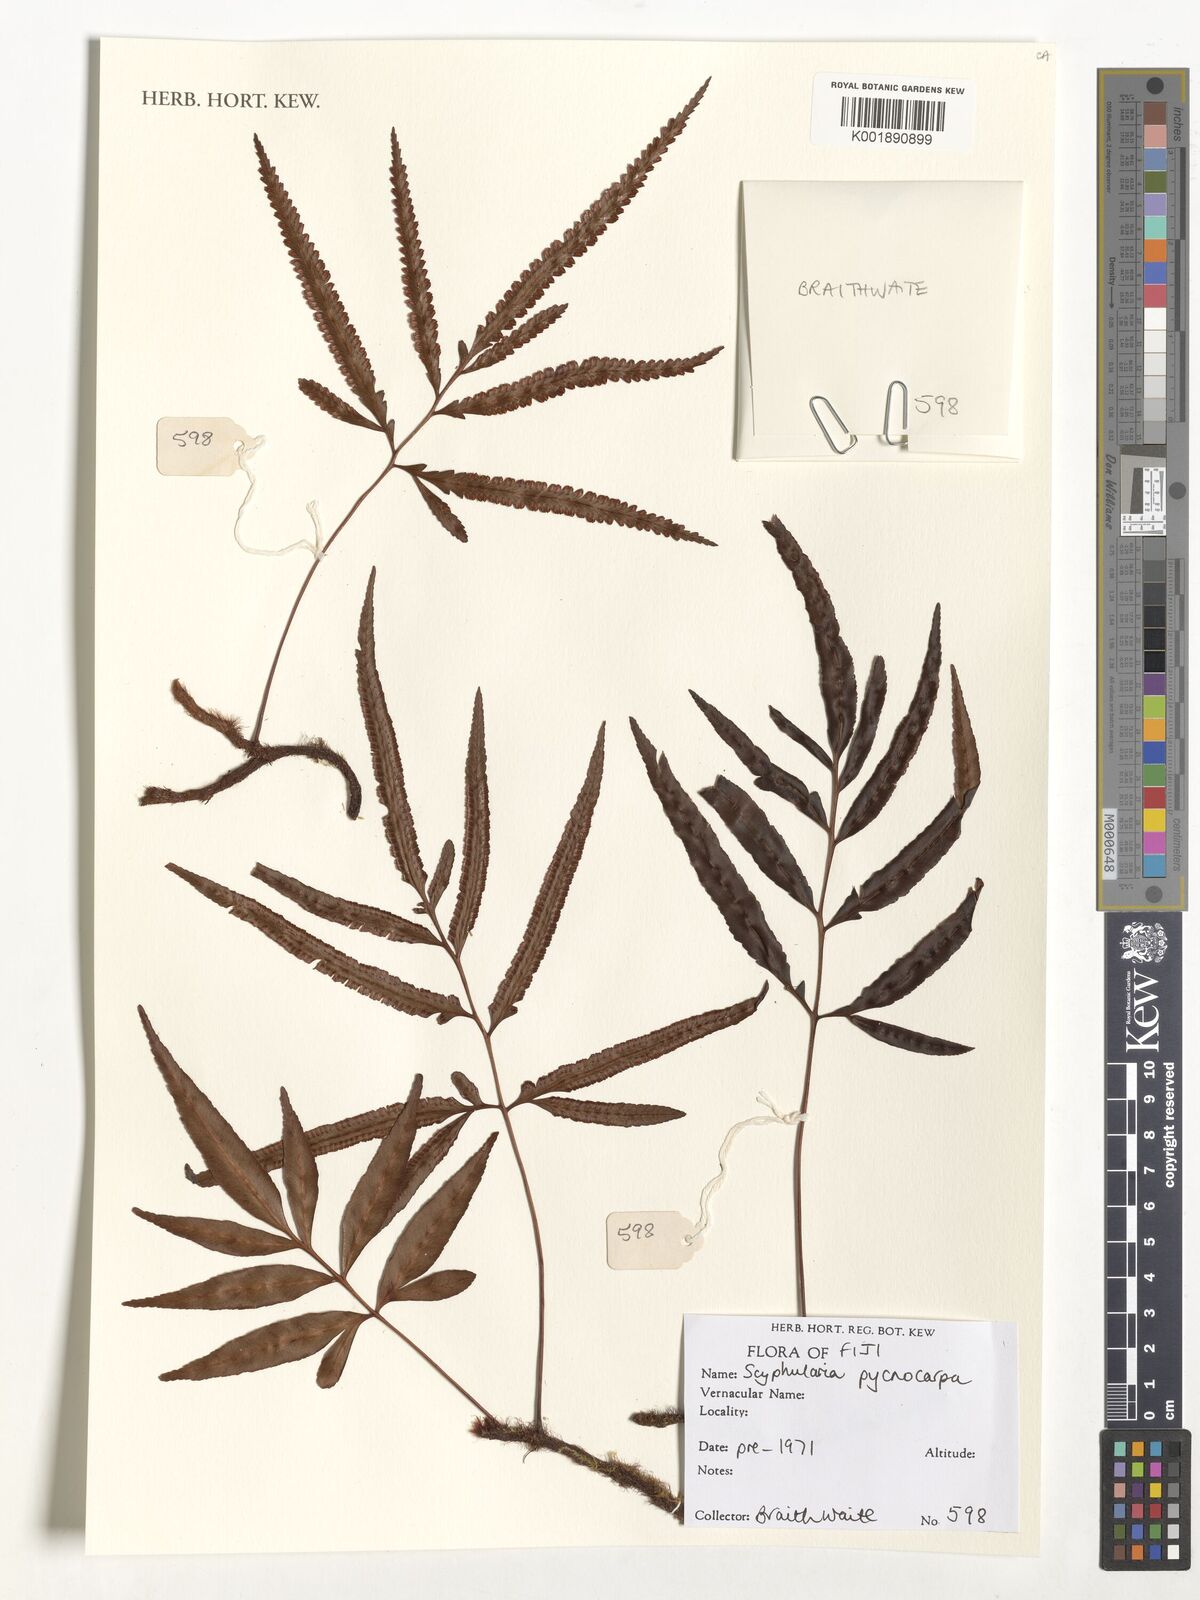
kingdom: Plantae
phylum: Tracheophyta
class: Polypodiopsida
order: Polypodiales
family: Davalliaceae
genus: Davallia
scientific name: Davallia pentaphylla
